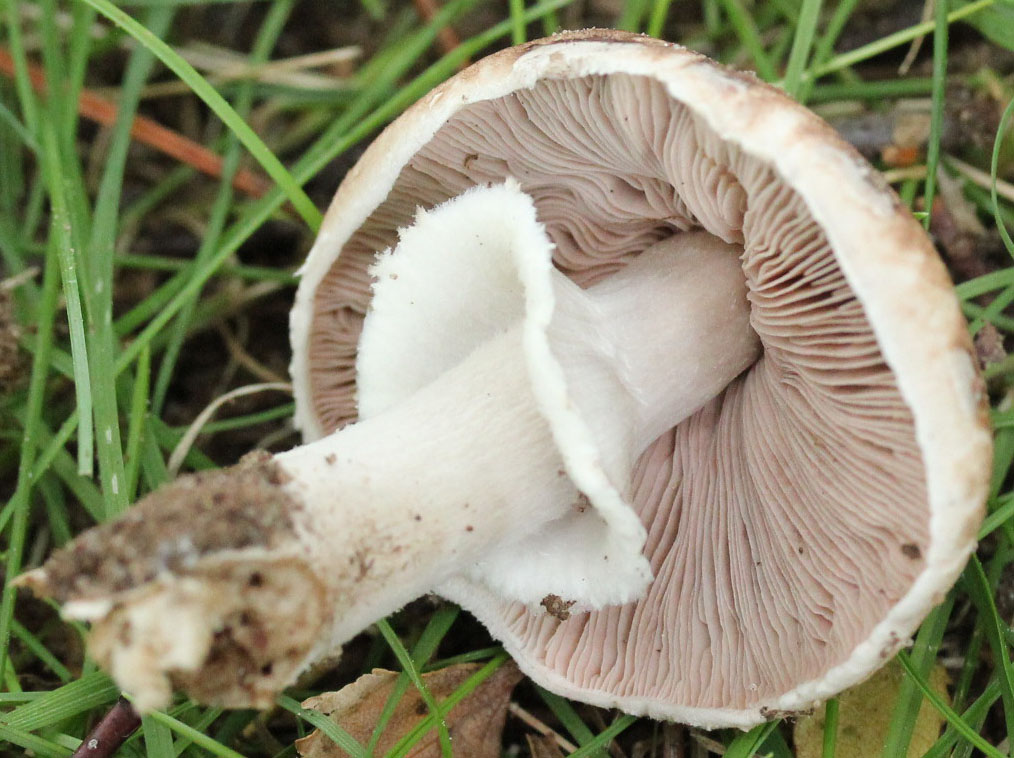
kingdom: Fungi
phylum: Basidiomycota
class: Agaricomycetes
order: Agaricales
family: Agaricaceae
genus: Agaricus
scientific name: Agaricus impudicus
